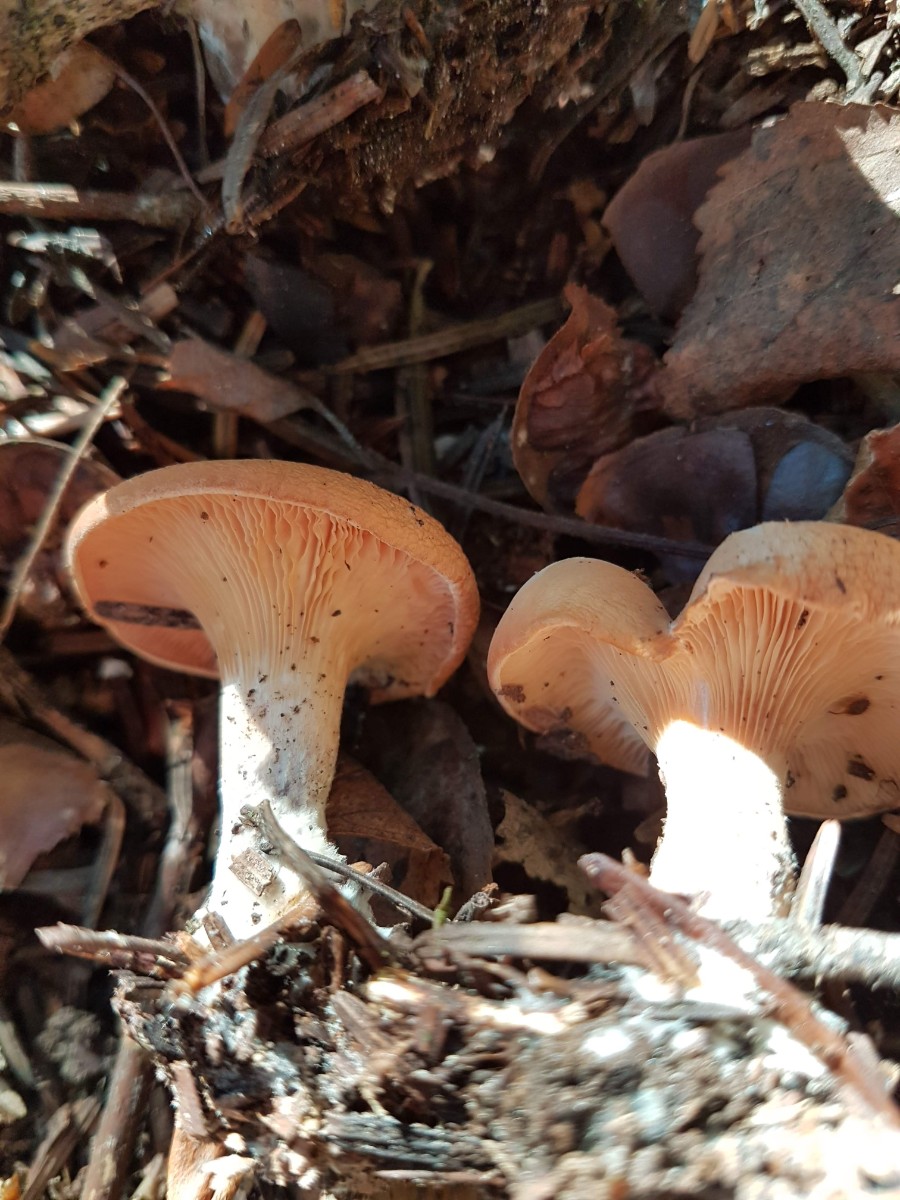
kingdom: Fungi
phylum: Basidiomycota
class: Agaricomycetes
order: Agaricales
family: Tricholomataceae
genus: Paralepista
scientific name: Paralepista
